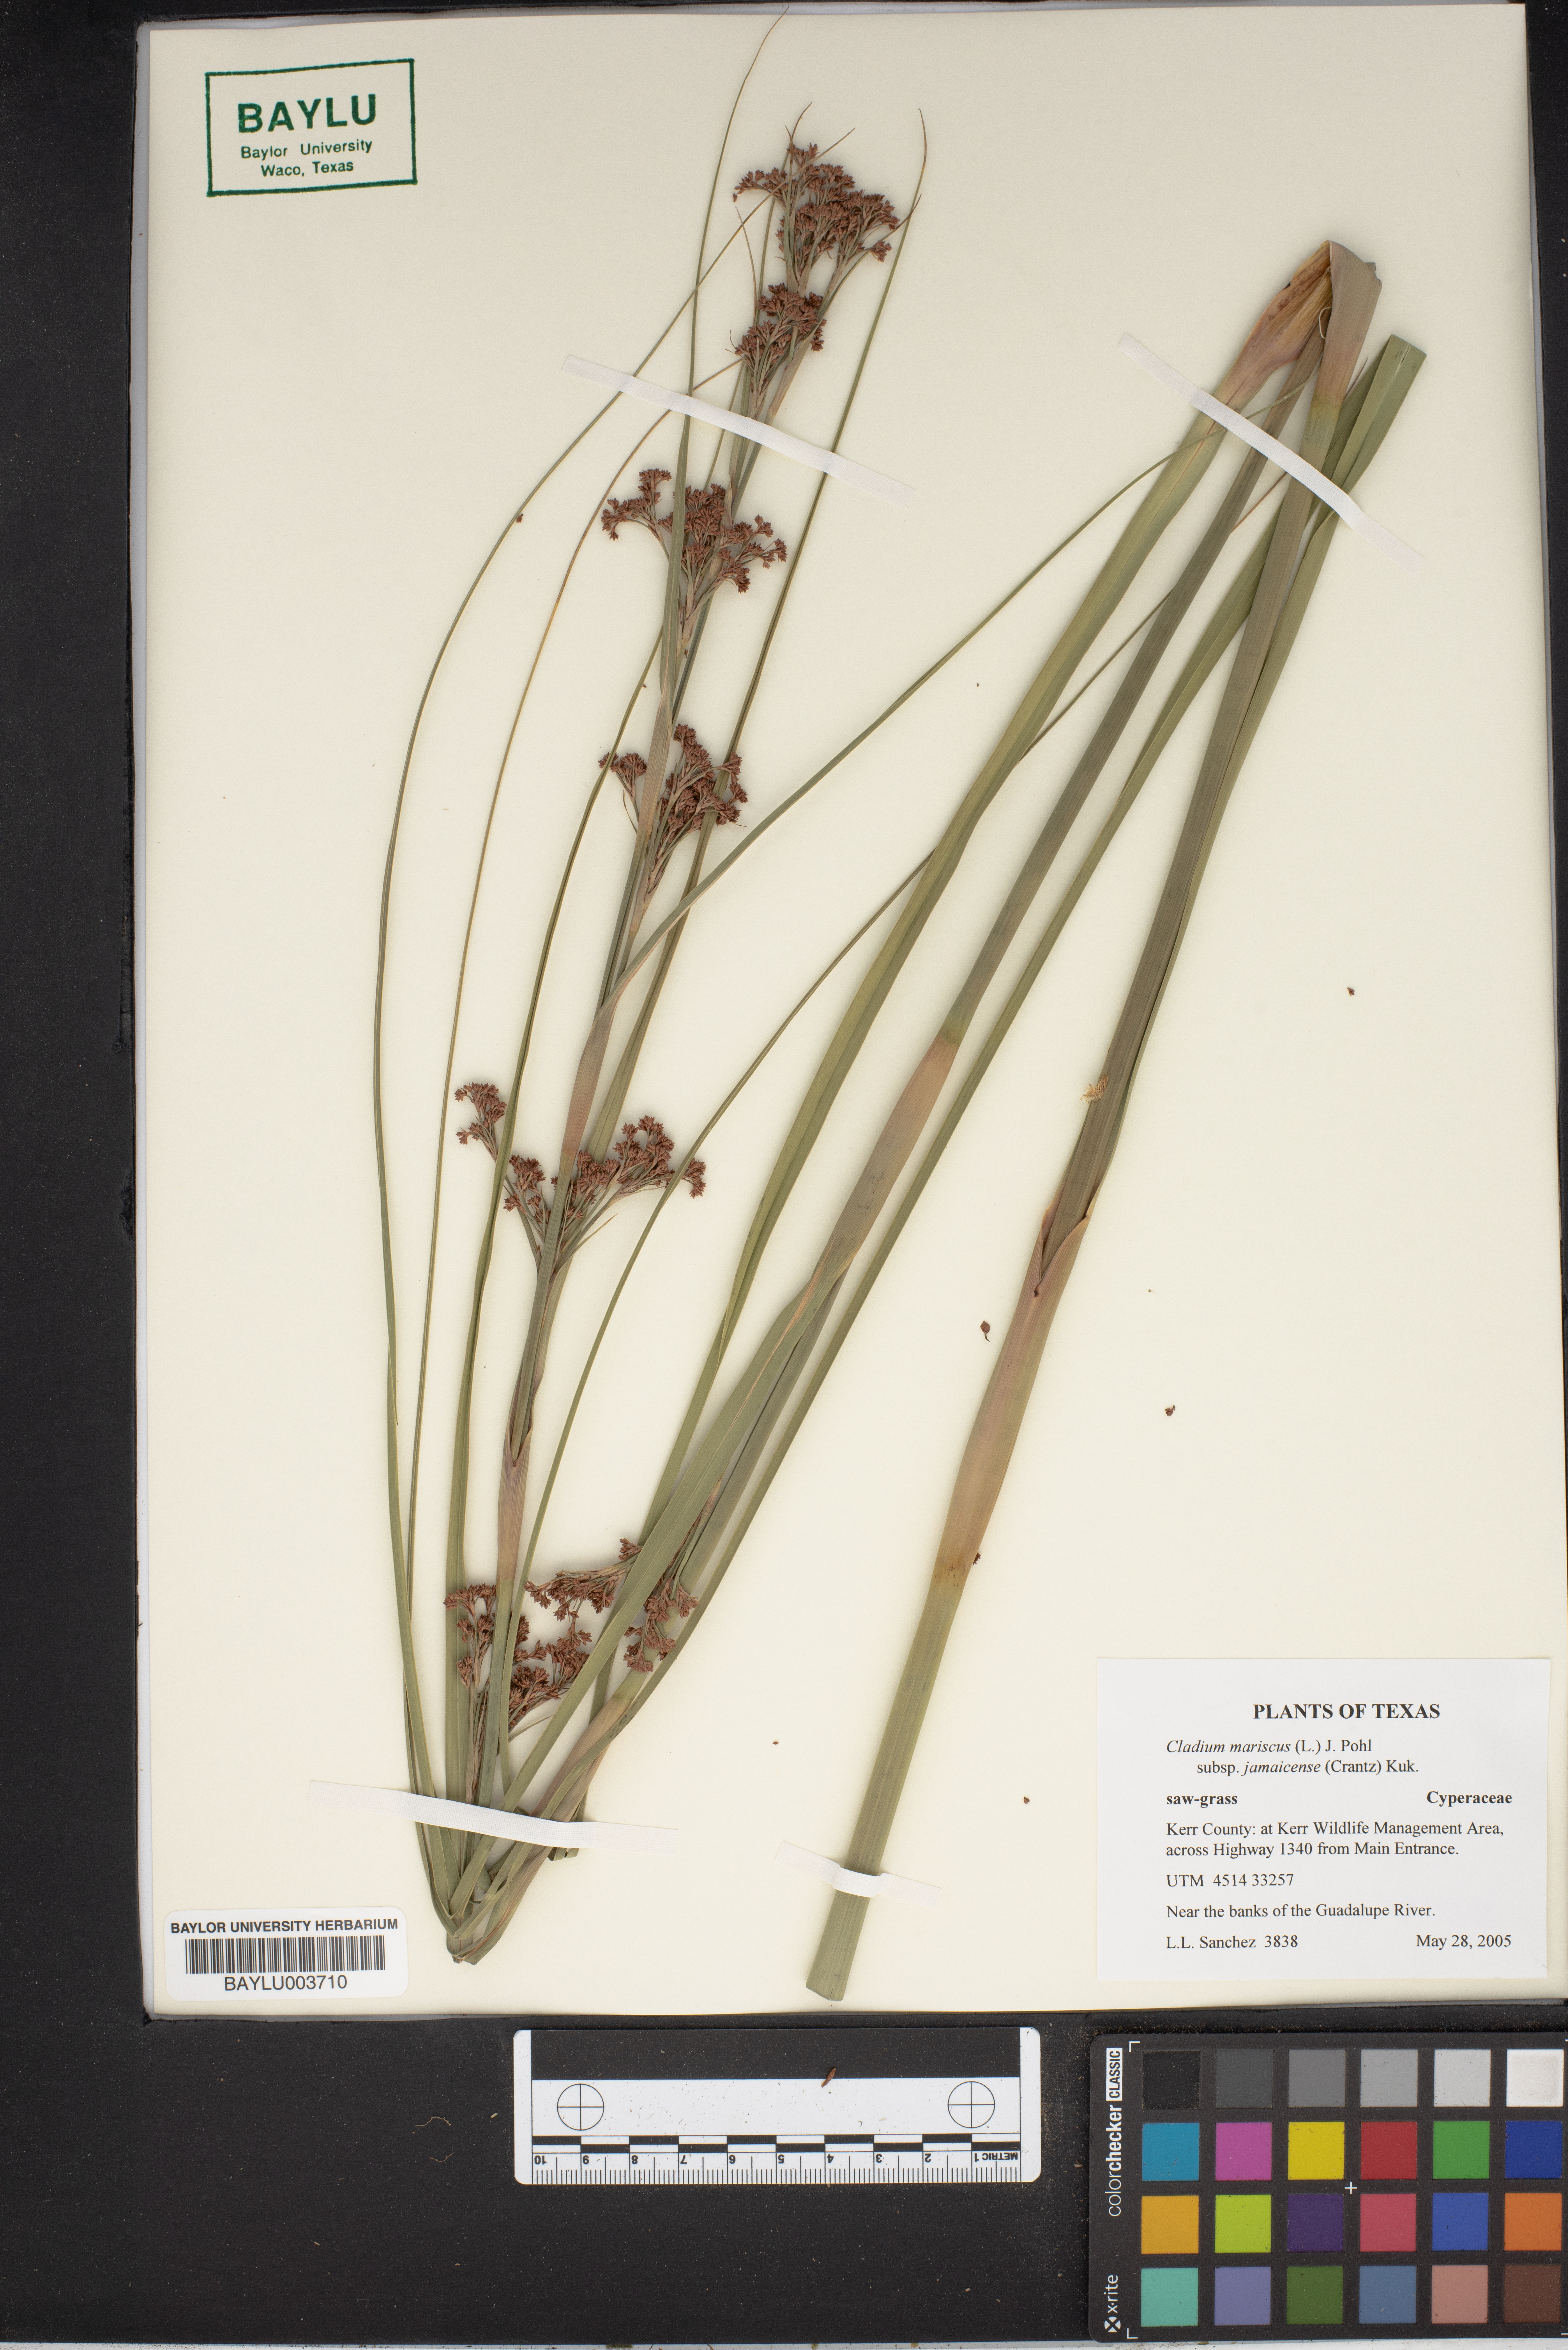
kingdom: Plantae
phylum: Tracheophyta
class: Liliopsida
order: Poales
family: Cyperaceae
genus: Cladium
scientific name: Cladium mariscus
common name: Great fen-sedge
